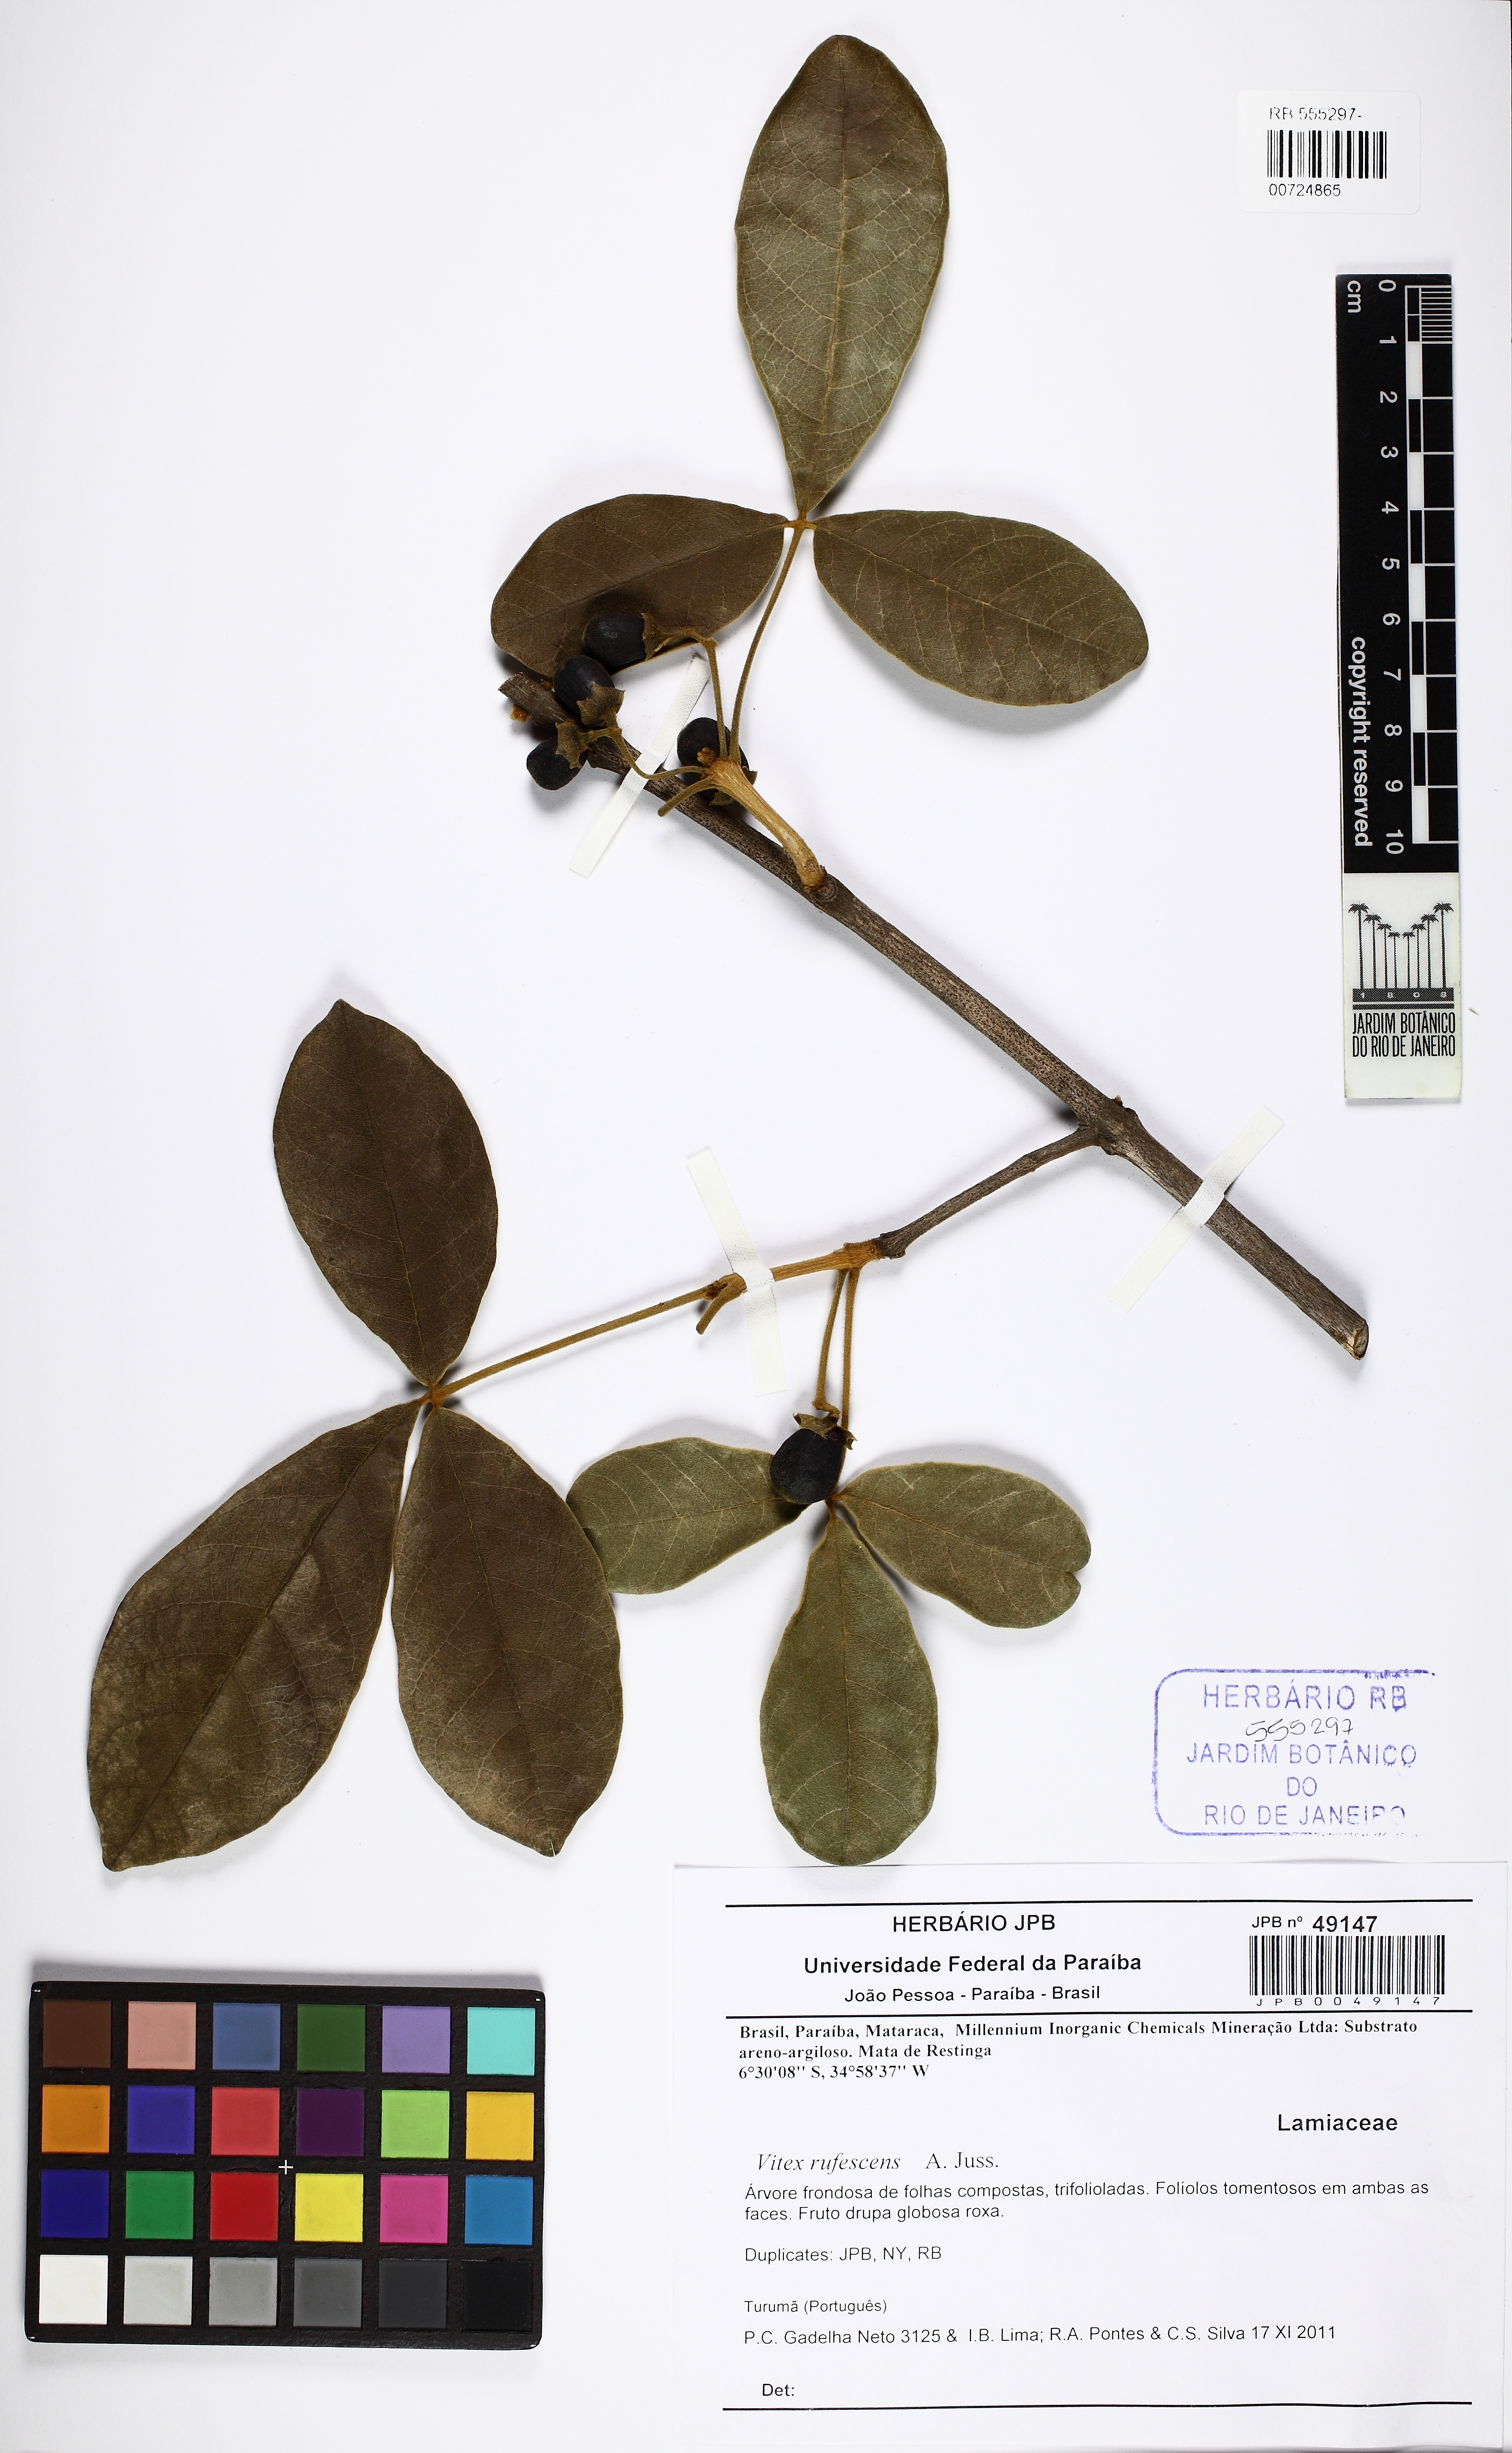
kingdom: Plantae
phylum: Tracheophyta
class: Magnoliopsida
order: Lamiales
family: Lamiaceae
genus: Vitex
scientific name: Vitex rufescens
